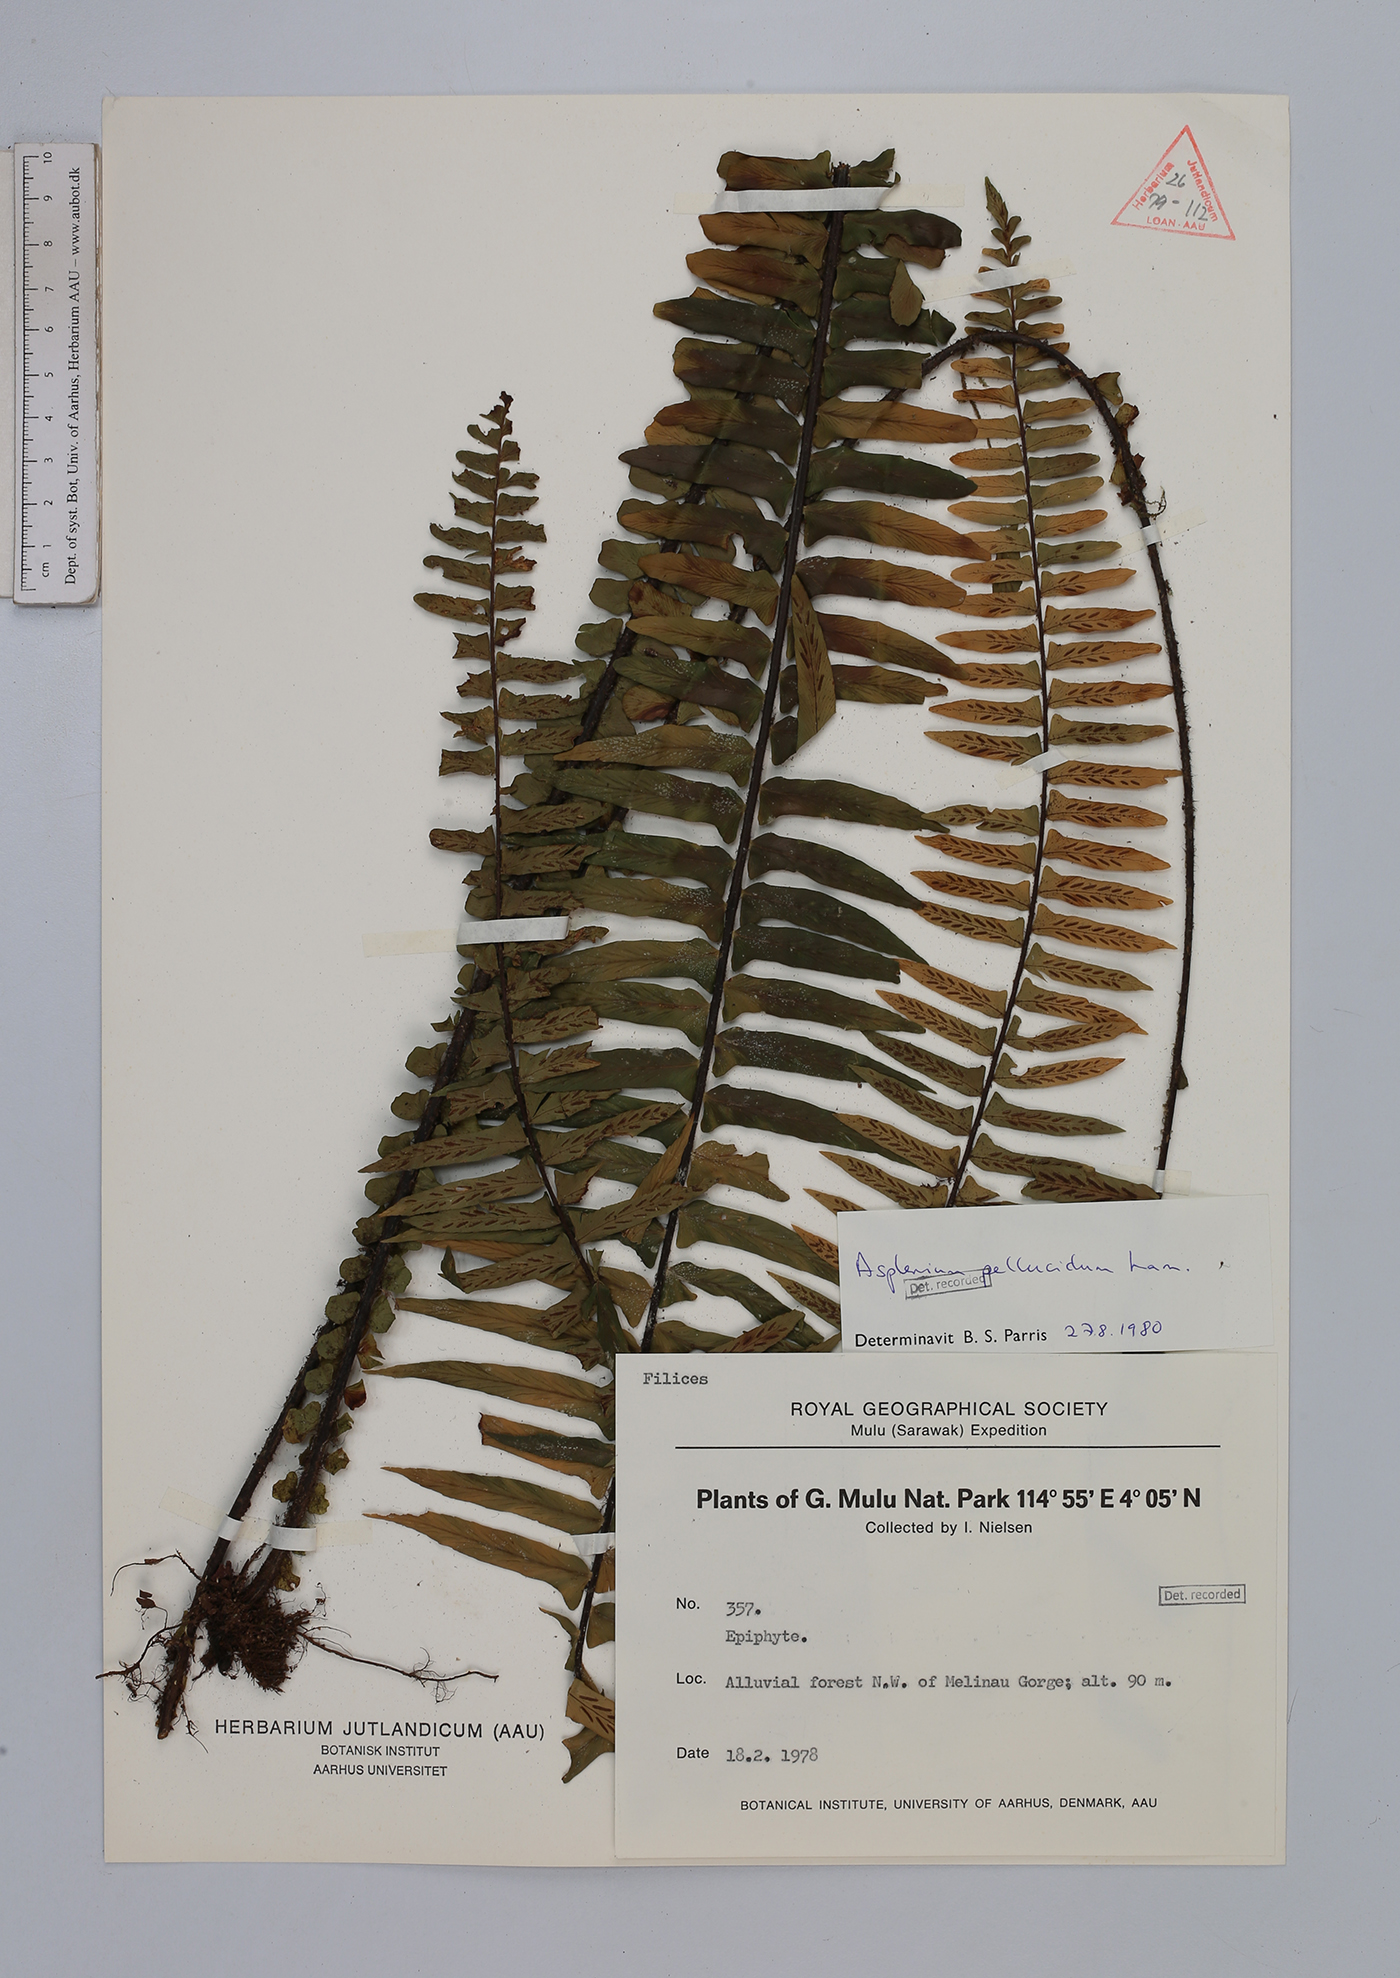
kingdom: Plantae
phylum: Tracheophyta
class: Polypodiopsida
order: Polypodiales
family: Aspleniaceae
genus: Asplenium
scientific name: Asplenium pellucidum
